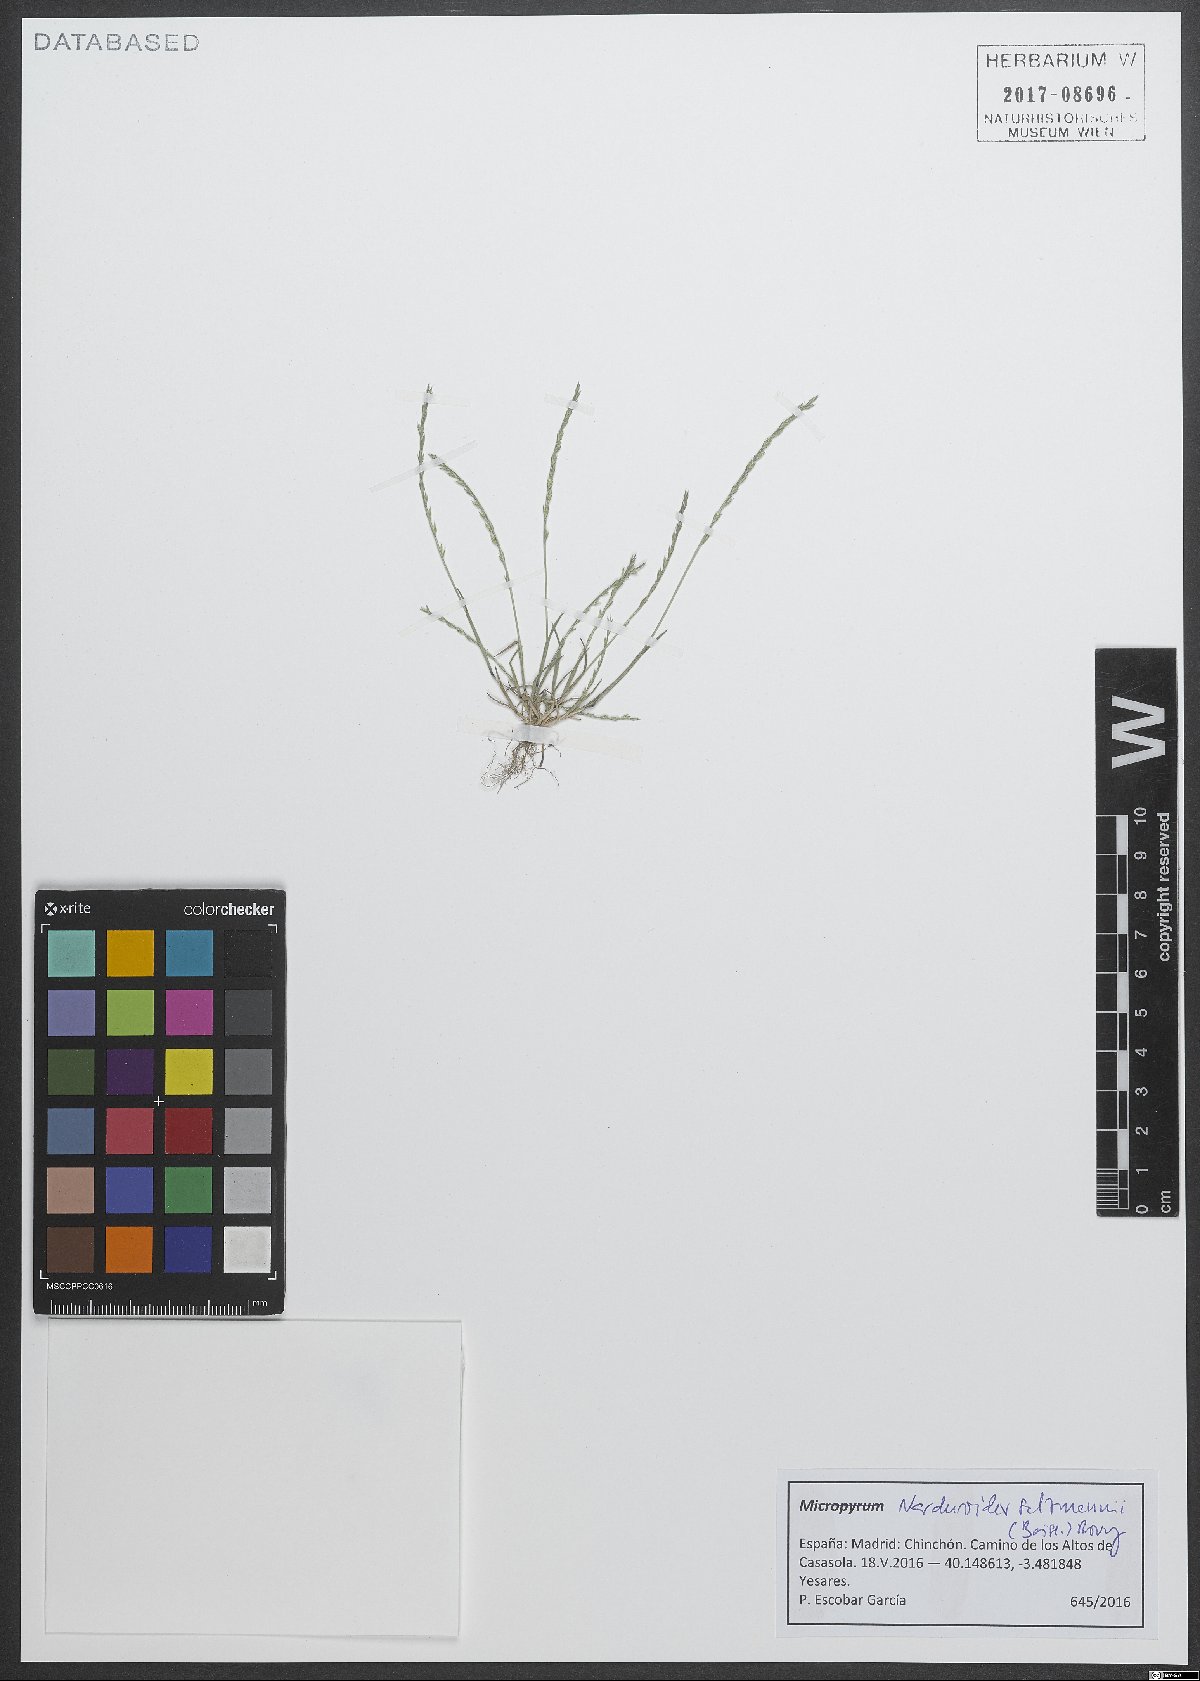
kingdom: Plantae
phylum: Tracheophyta
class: Liliopsida
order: Poales
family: Poaceae
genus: Festuca
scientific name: Festuca salzmannii
